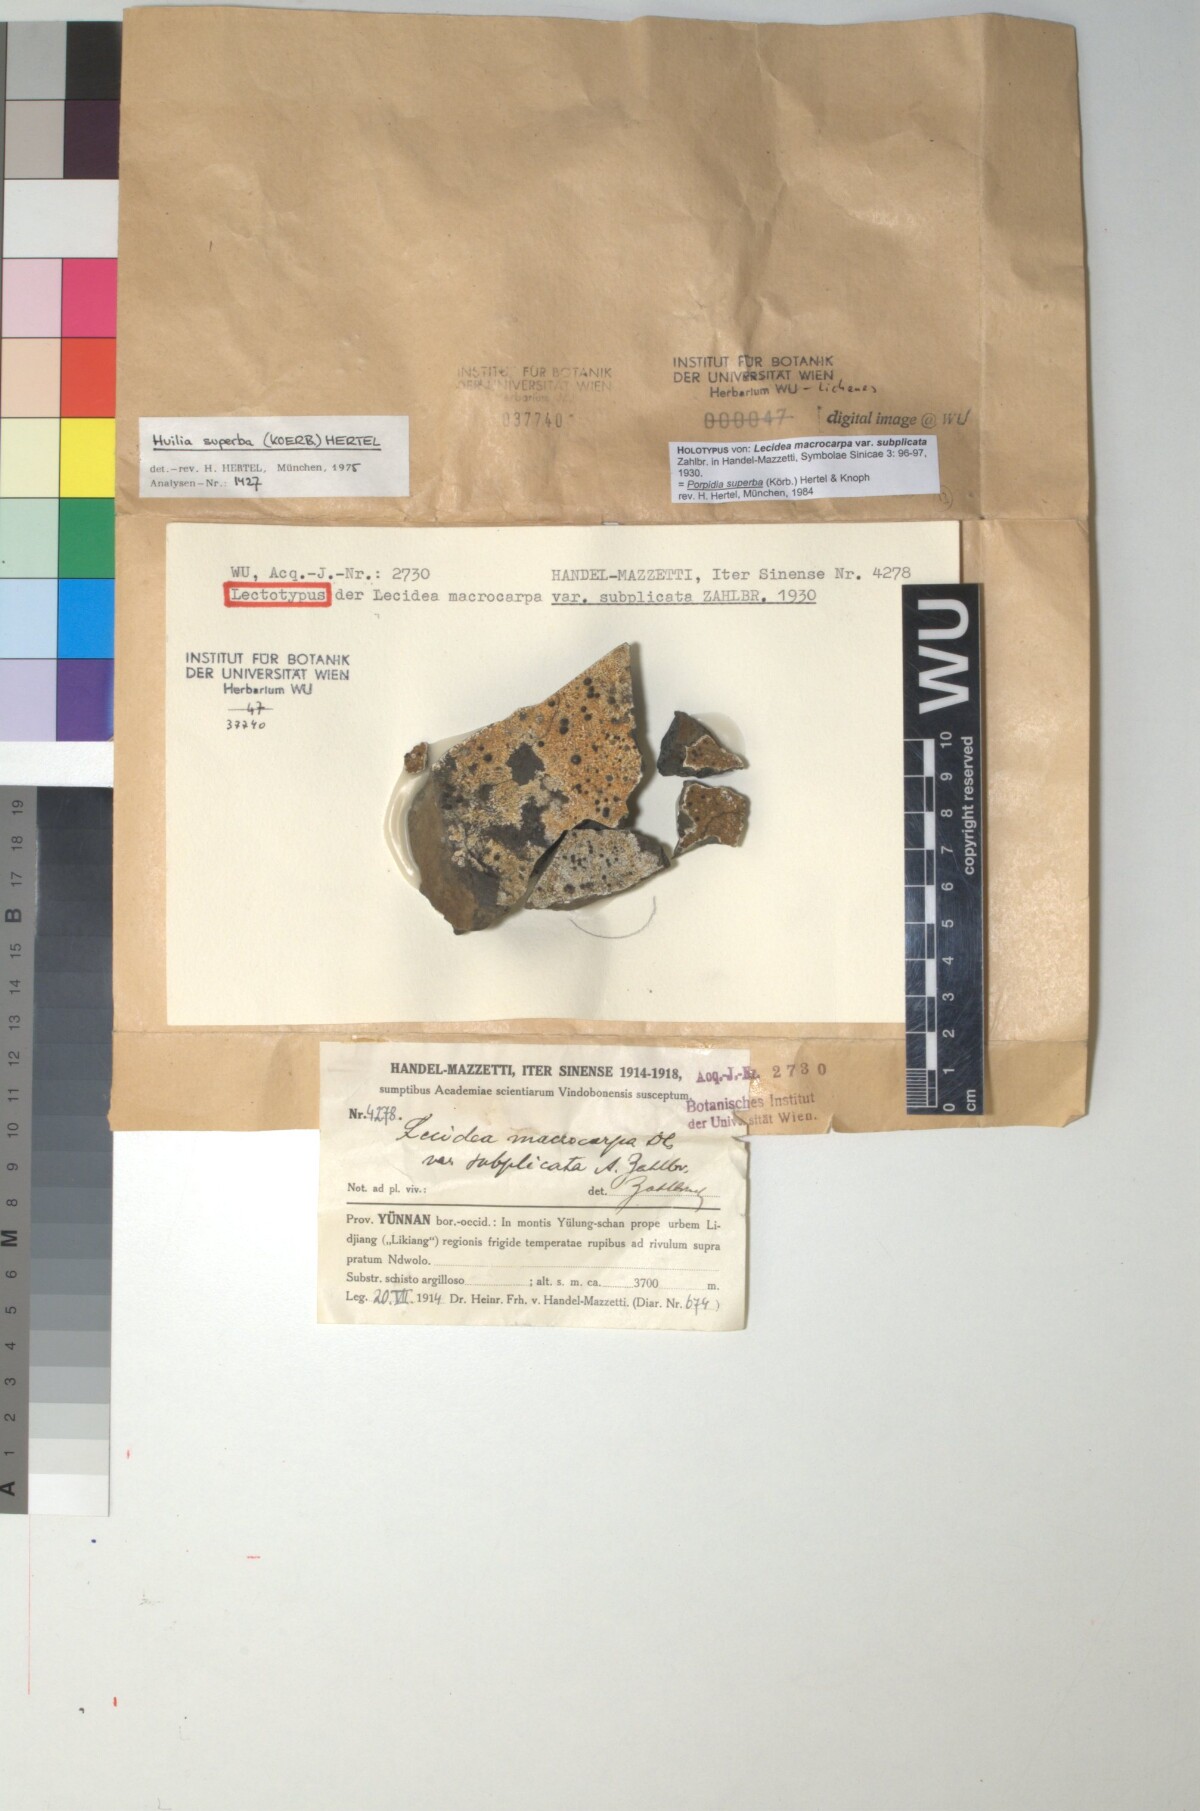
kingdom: Fungi
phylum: Ascomycota
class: Lecanoromycetes
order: Lecideales
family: Lecideaceae
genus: Porpidia
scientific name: Porpidia macrocarpa
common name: Common boulder lichen
